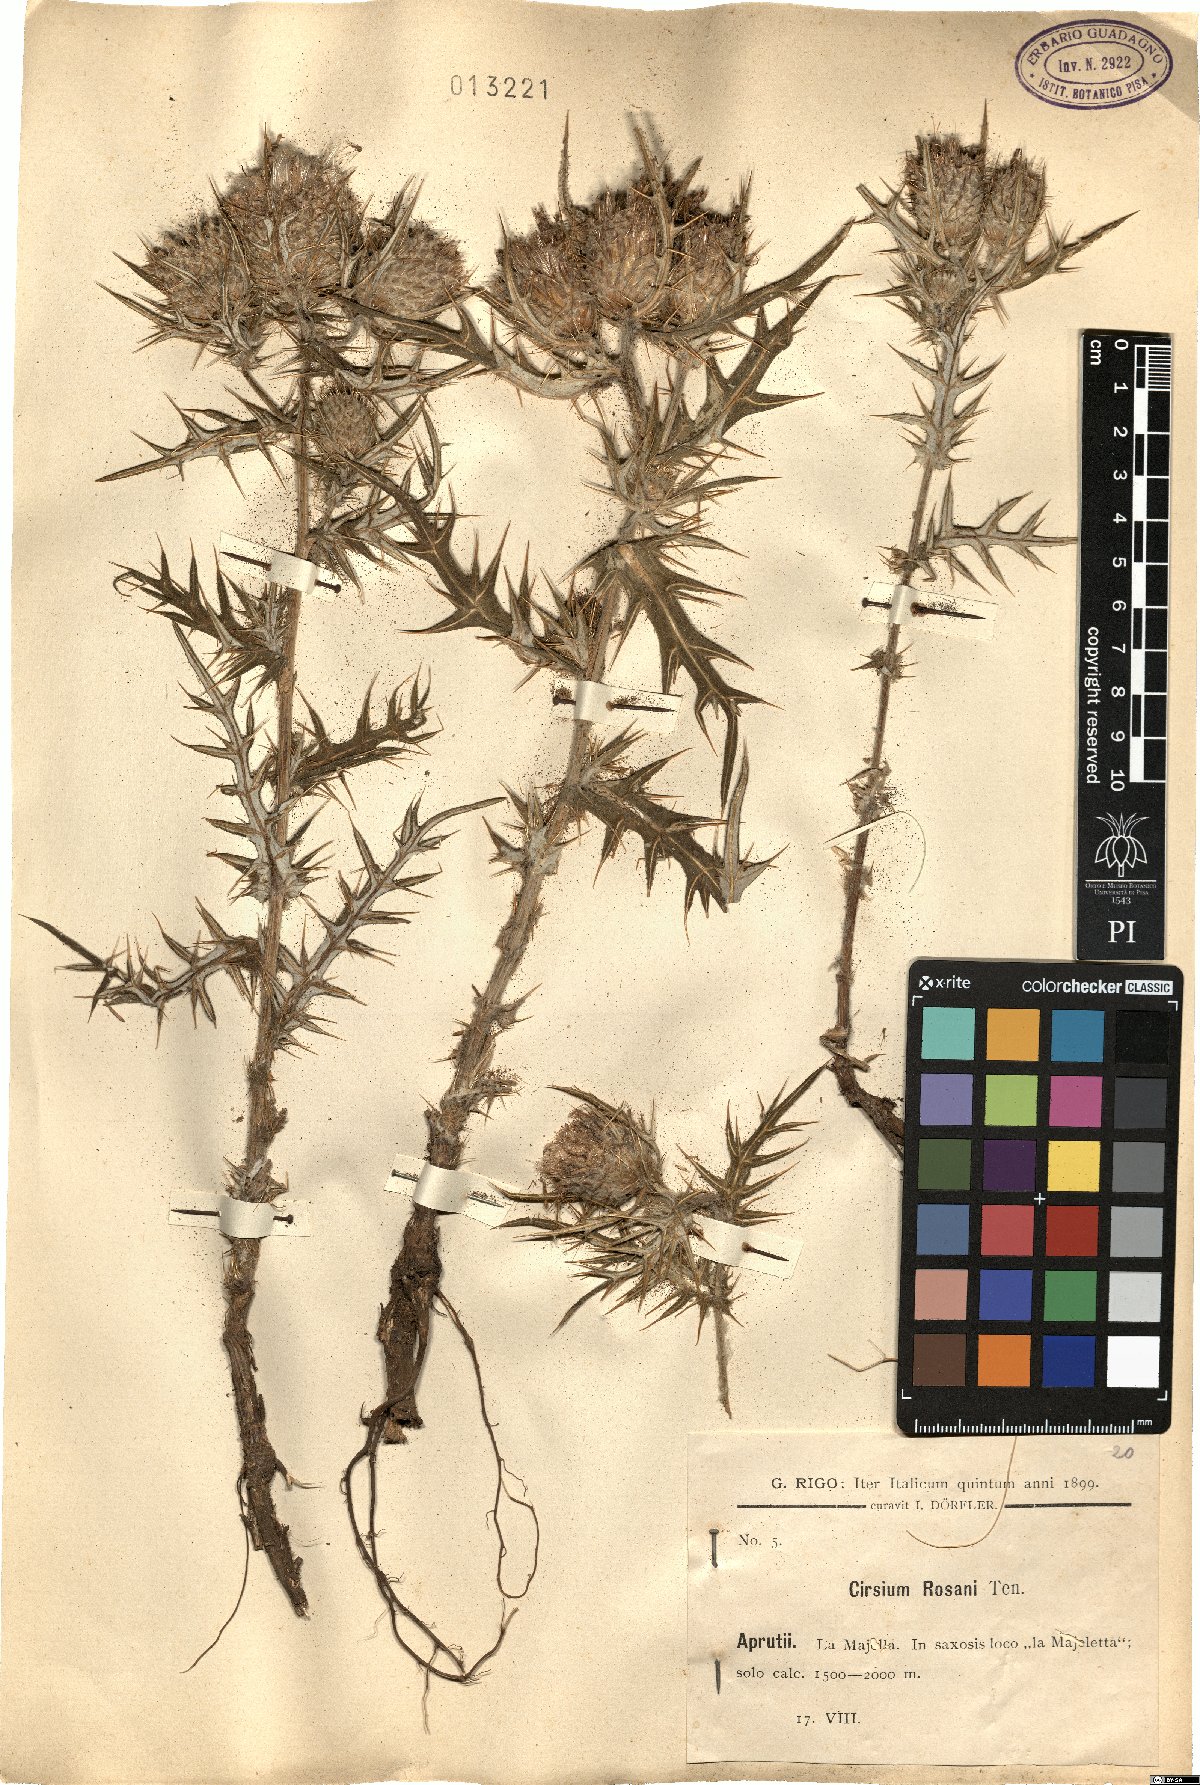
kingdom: Plantae
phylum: Tracheophyta
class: Magnoliopsida
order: Asterales
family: Asteraceae
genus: Cirsium
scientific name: Cirsium vulgare
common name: Bull thistle
